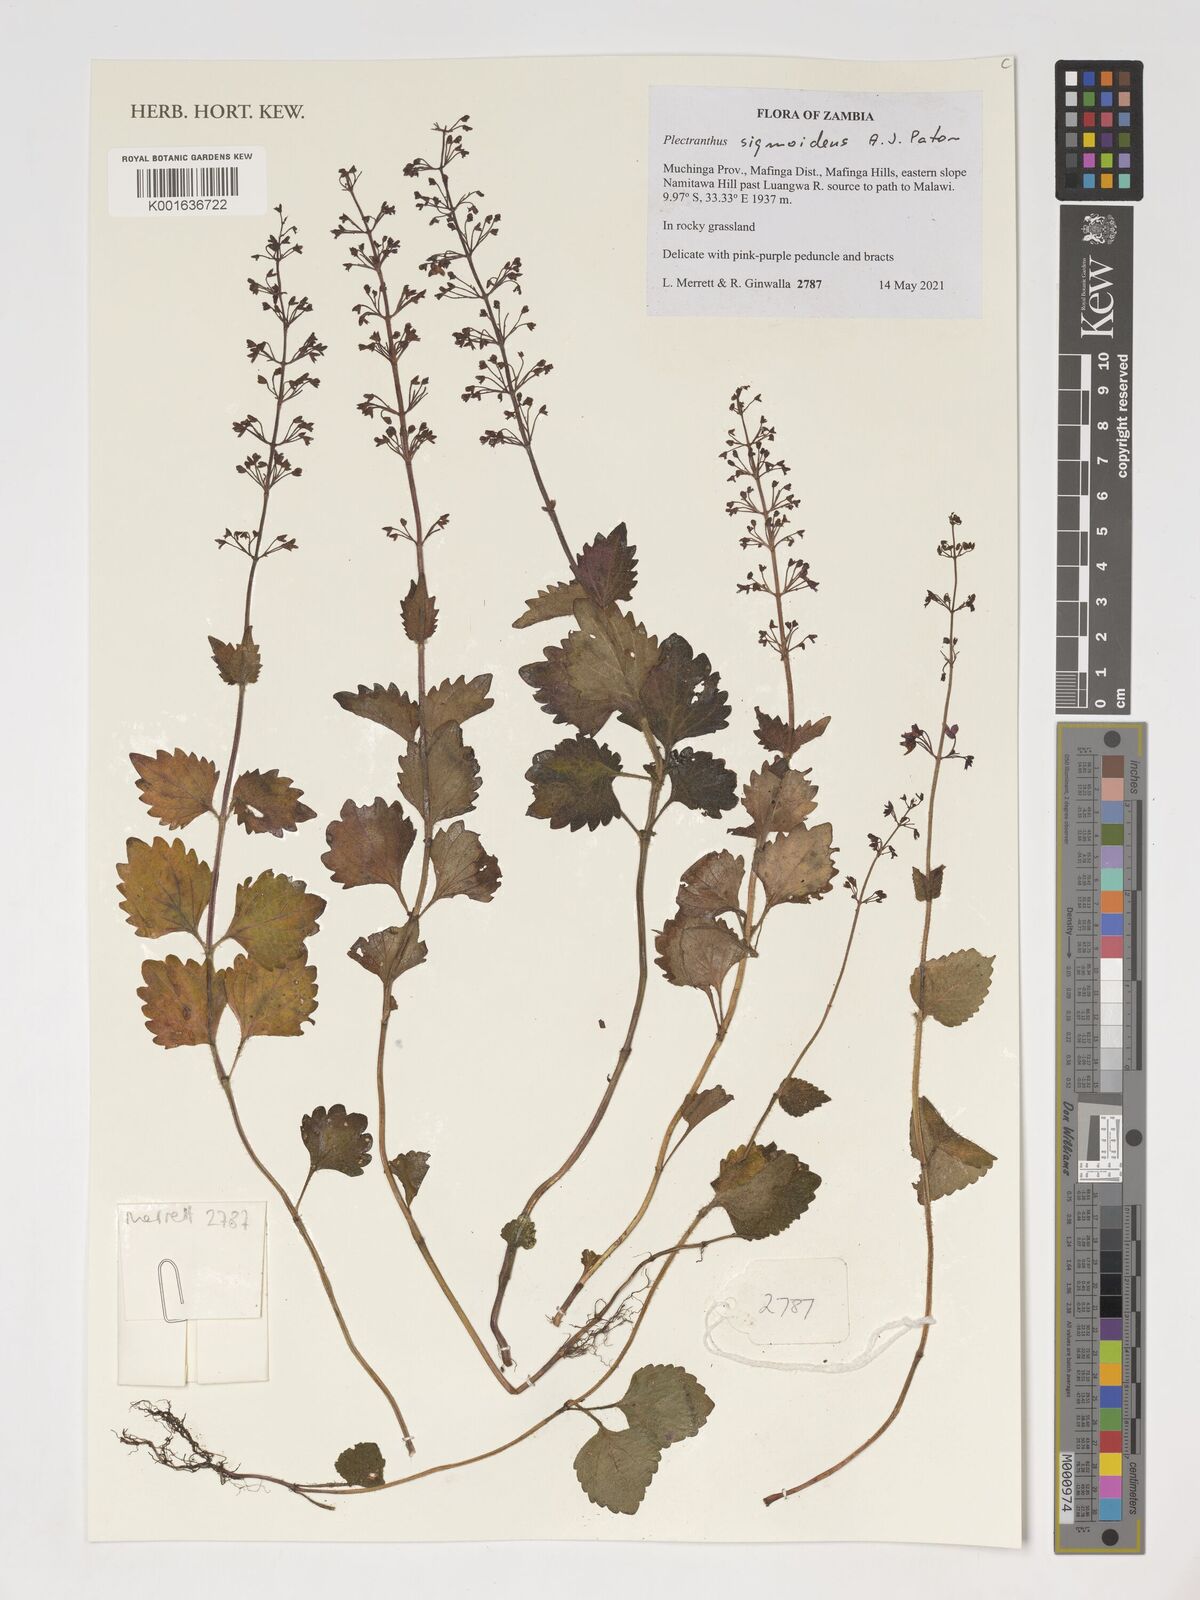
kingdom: Plantae
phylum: Tracheophyta
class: Magnoliopsida
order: Lamiales
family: Lamiaceae
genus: Coleus
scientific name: Coleus sigmoideus
